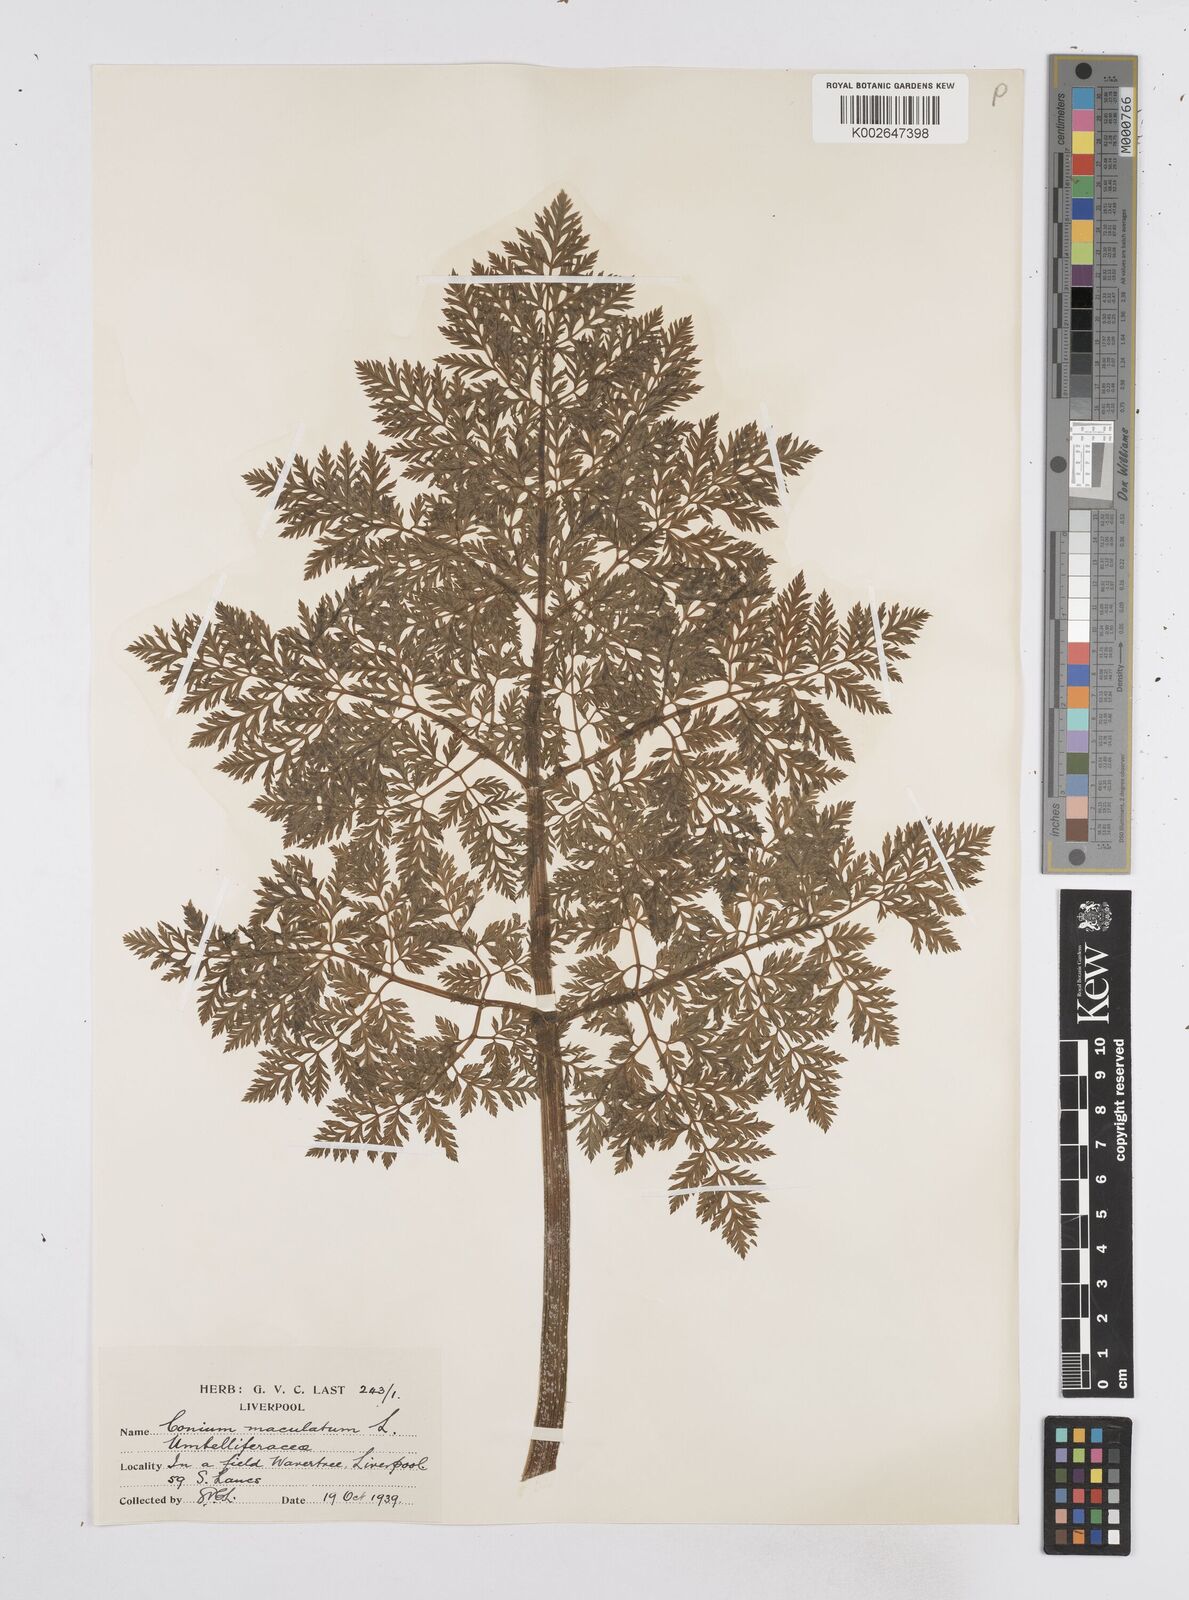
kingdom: Plantae
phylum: Tracheophyta
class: Magnoliopsida
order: Apiales
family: Apiaceae
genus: Conium
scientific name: Conium maculatum
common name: Hemlock
